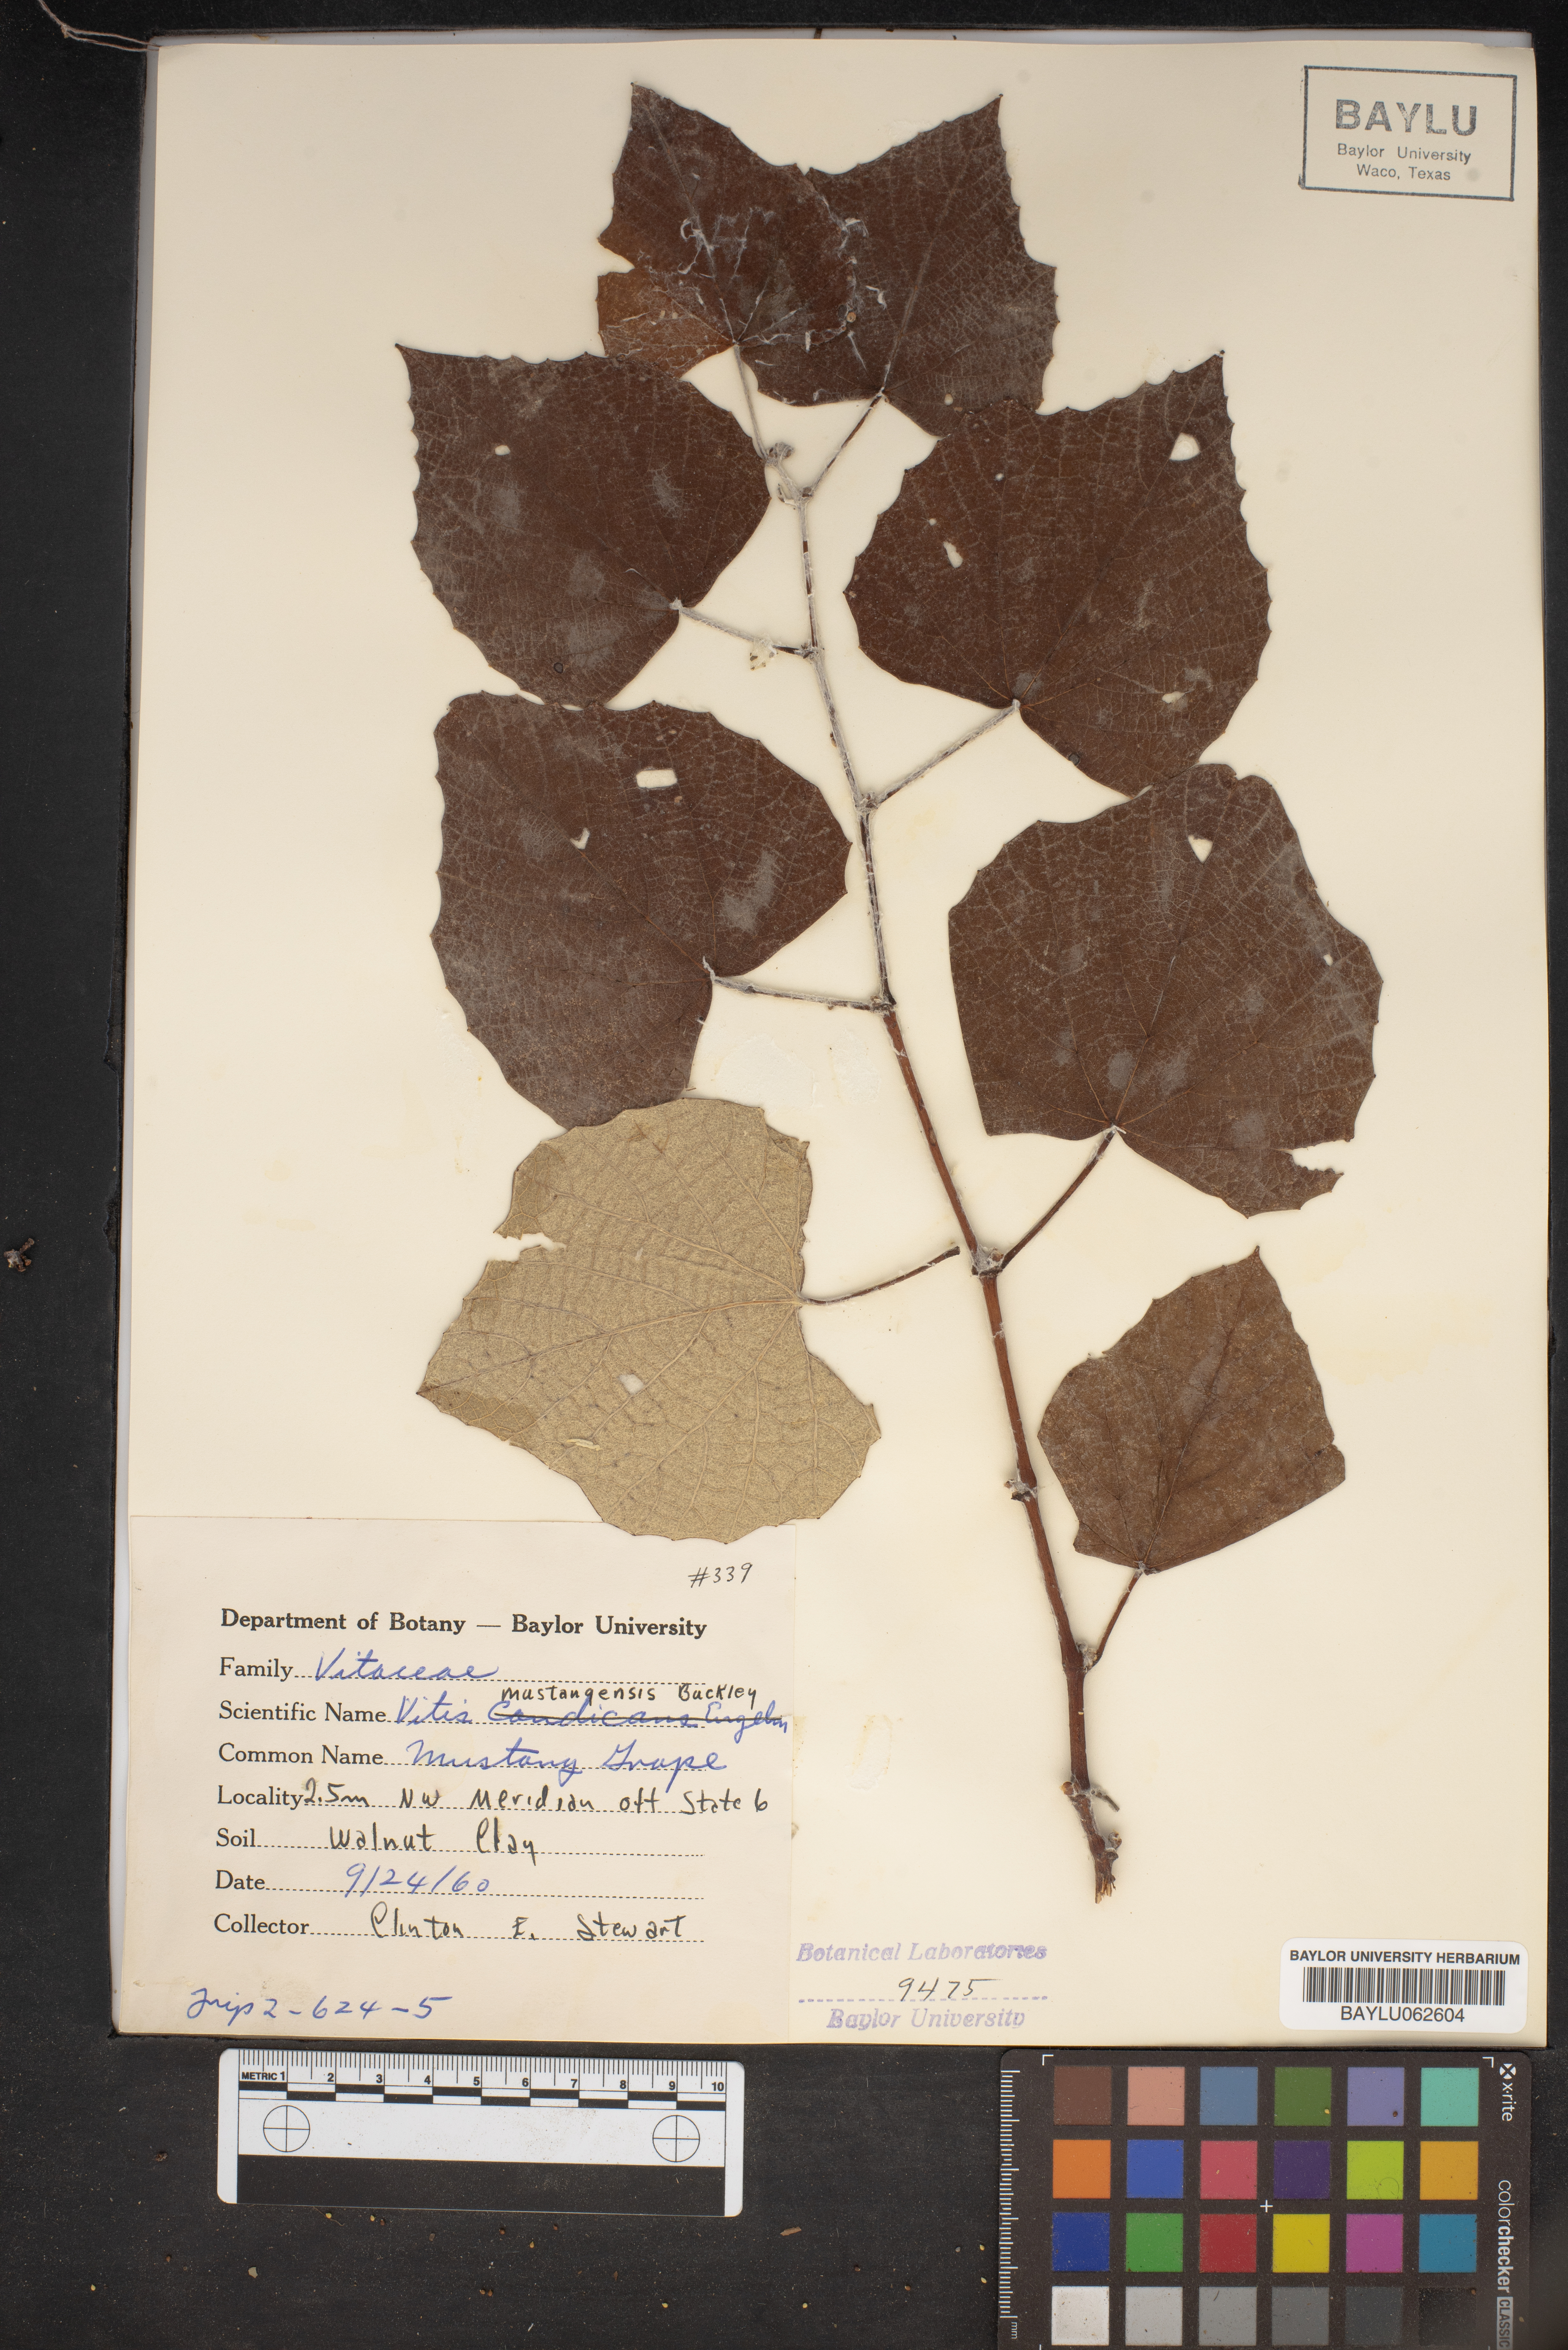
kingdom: Plantae
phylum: Tracheophyta
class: Magnoliopsida
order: Vitales
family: Vitaceae
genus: Vitis
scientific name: Vitis mustangensis
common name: Mustang grape
